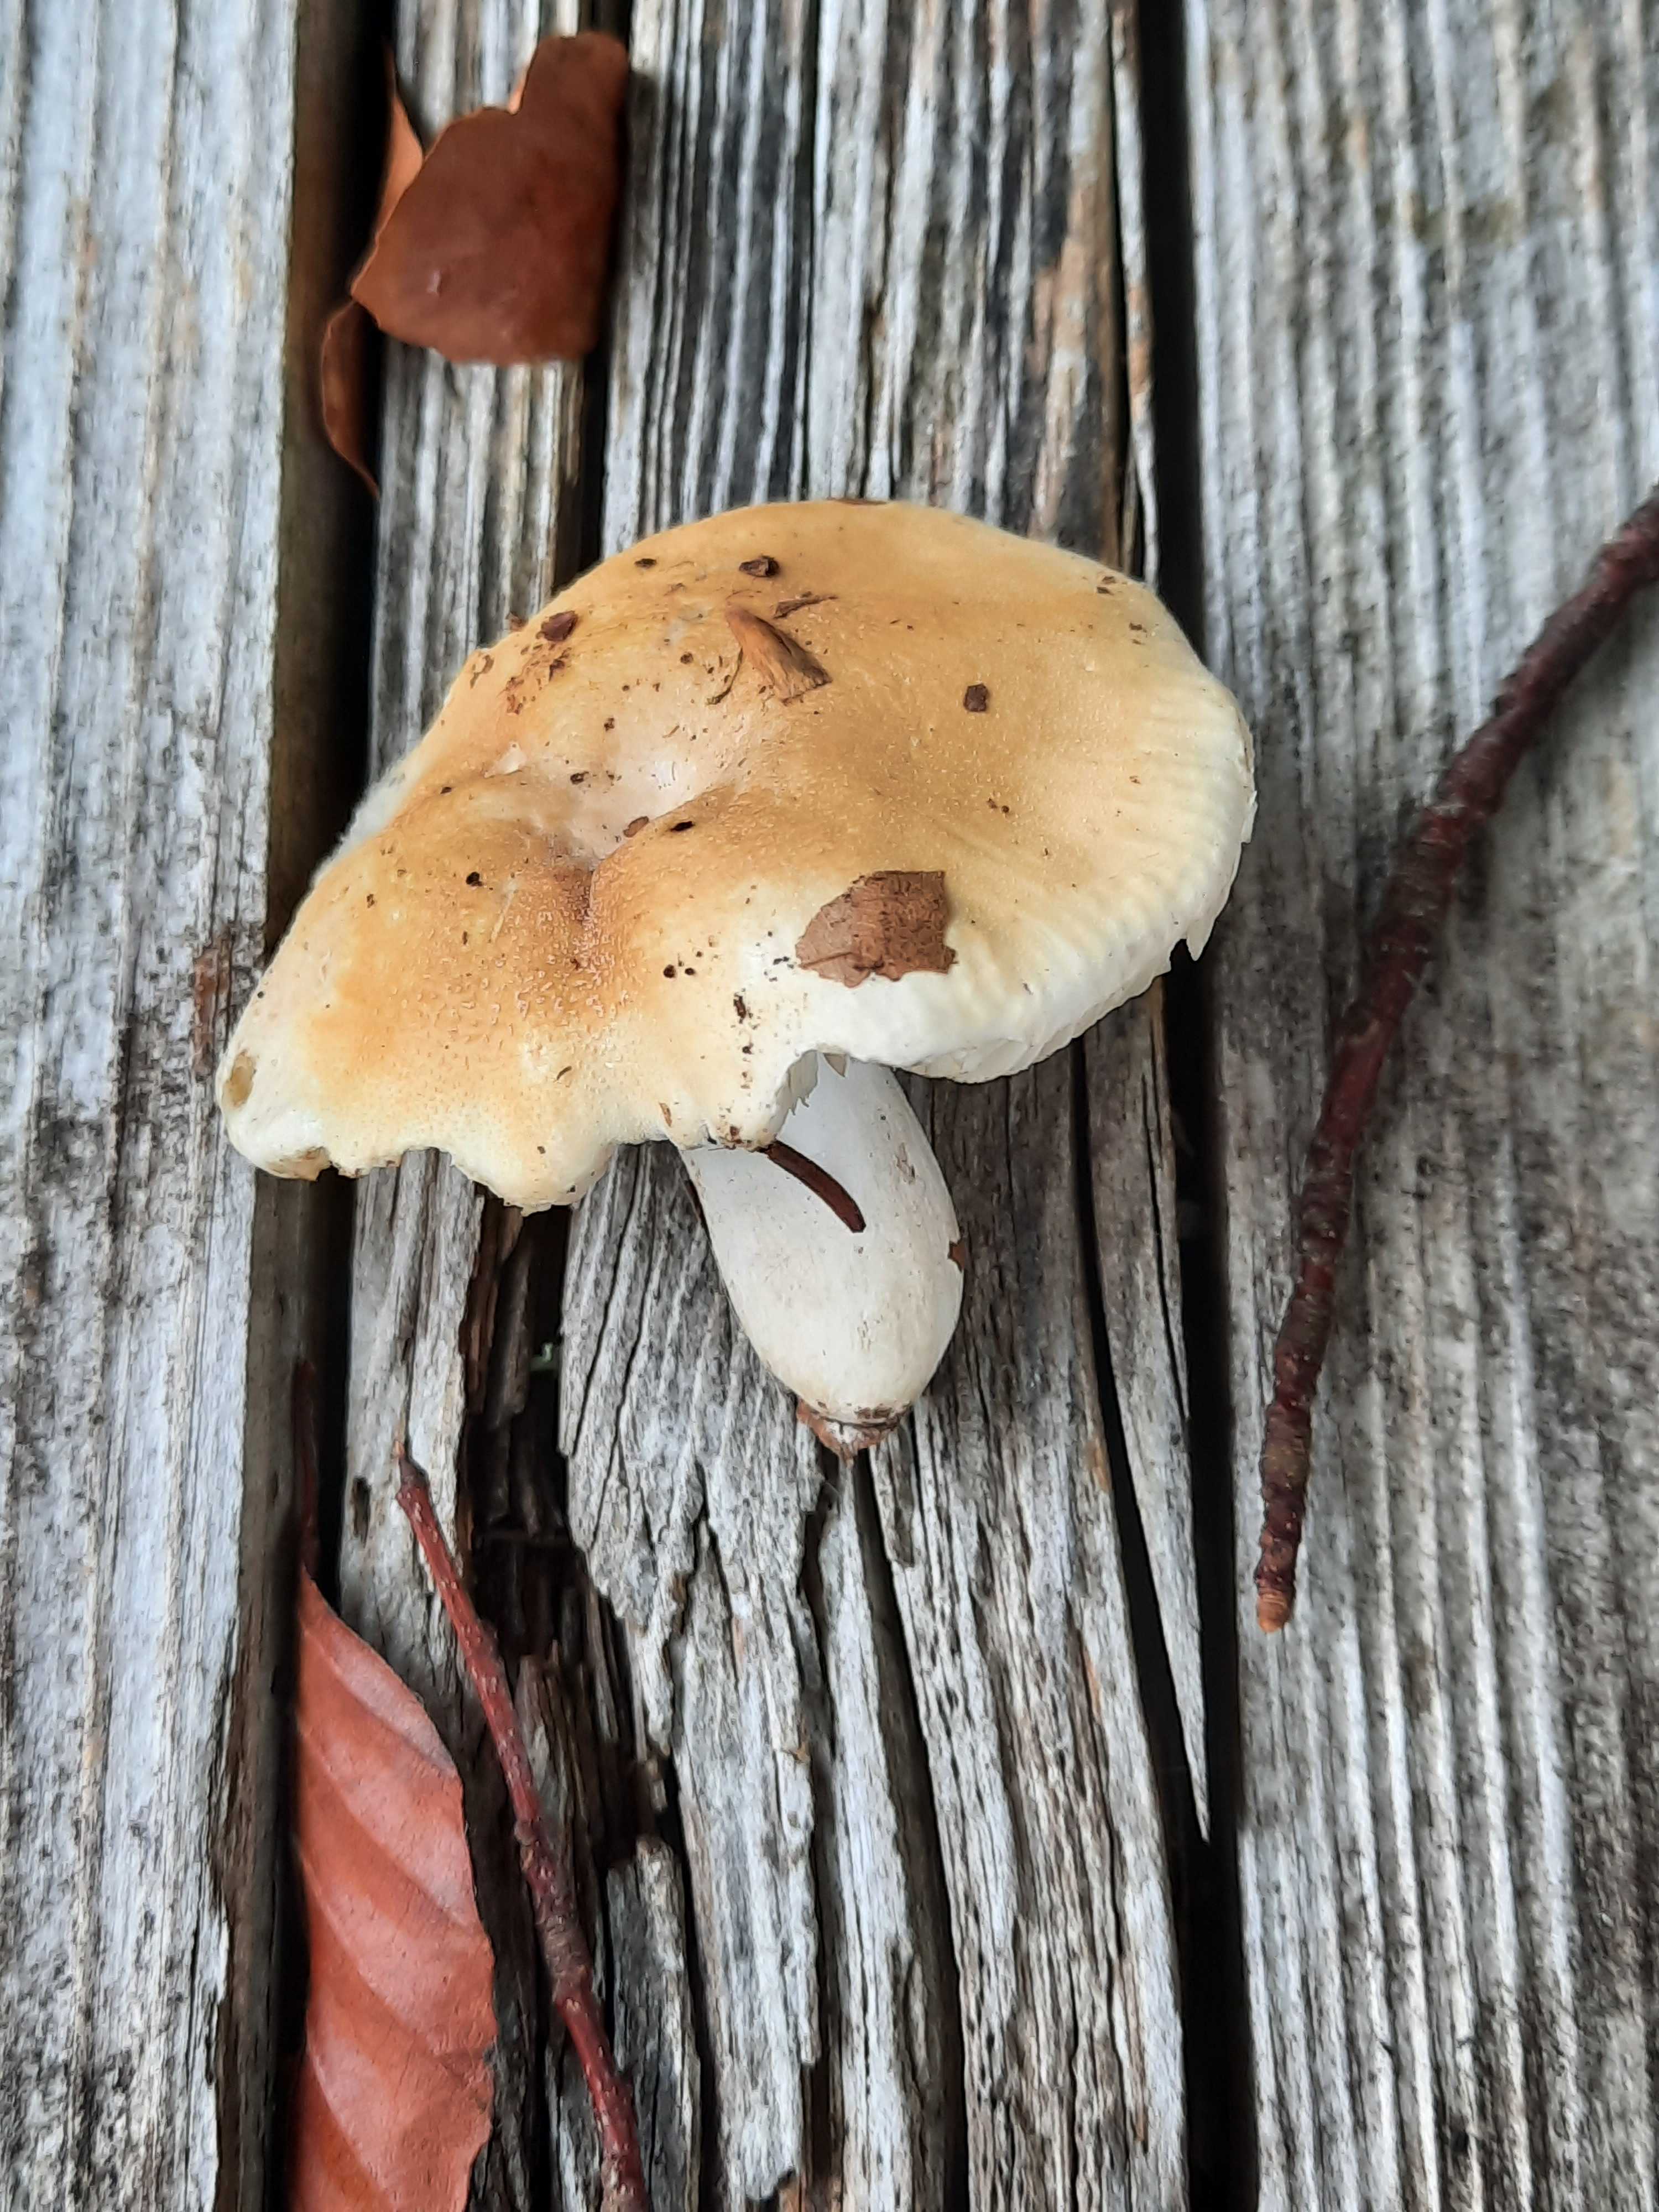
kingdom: Fungi
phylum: Basidiomycota
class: Agaricomycetes
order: Russulales
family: Russulaceae
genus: Russula
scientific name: Russula roseoaurantia
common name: kornet skørhat
